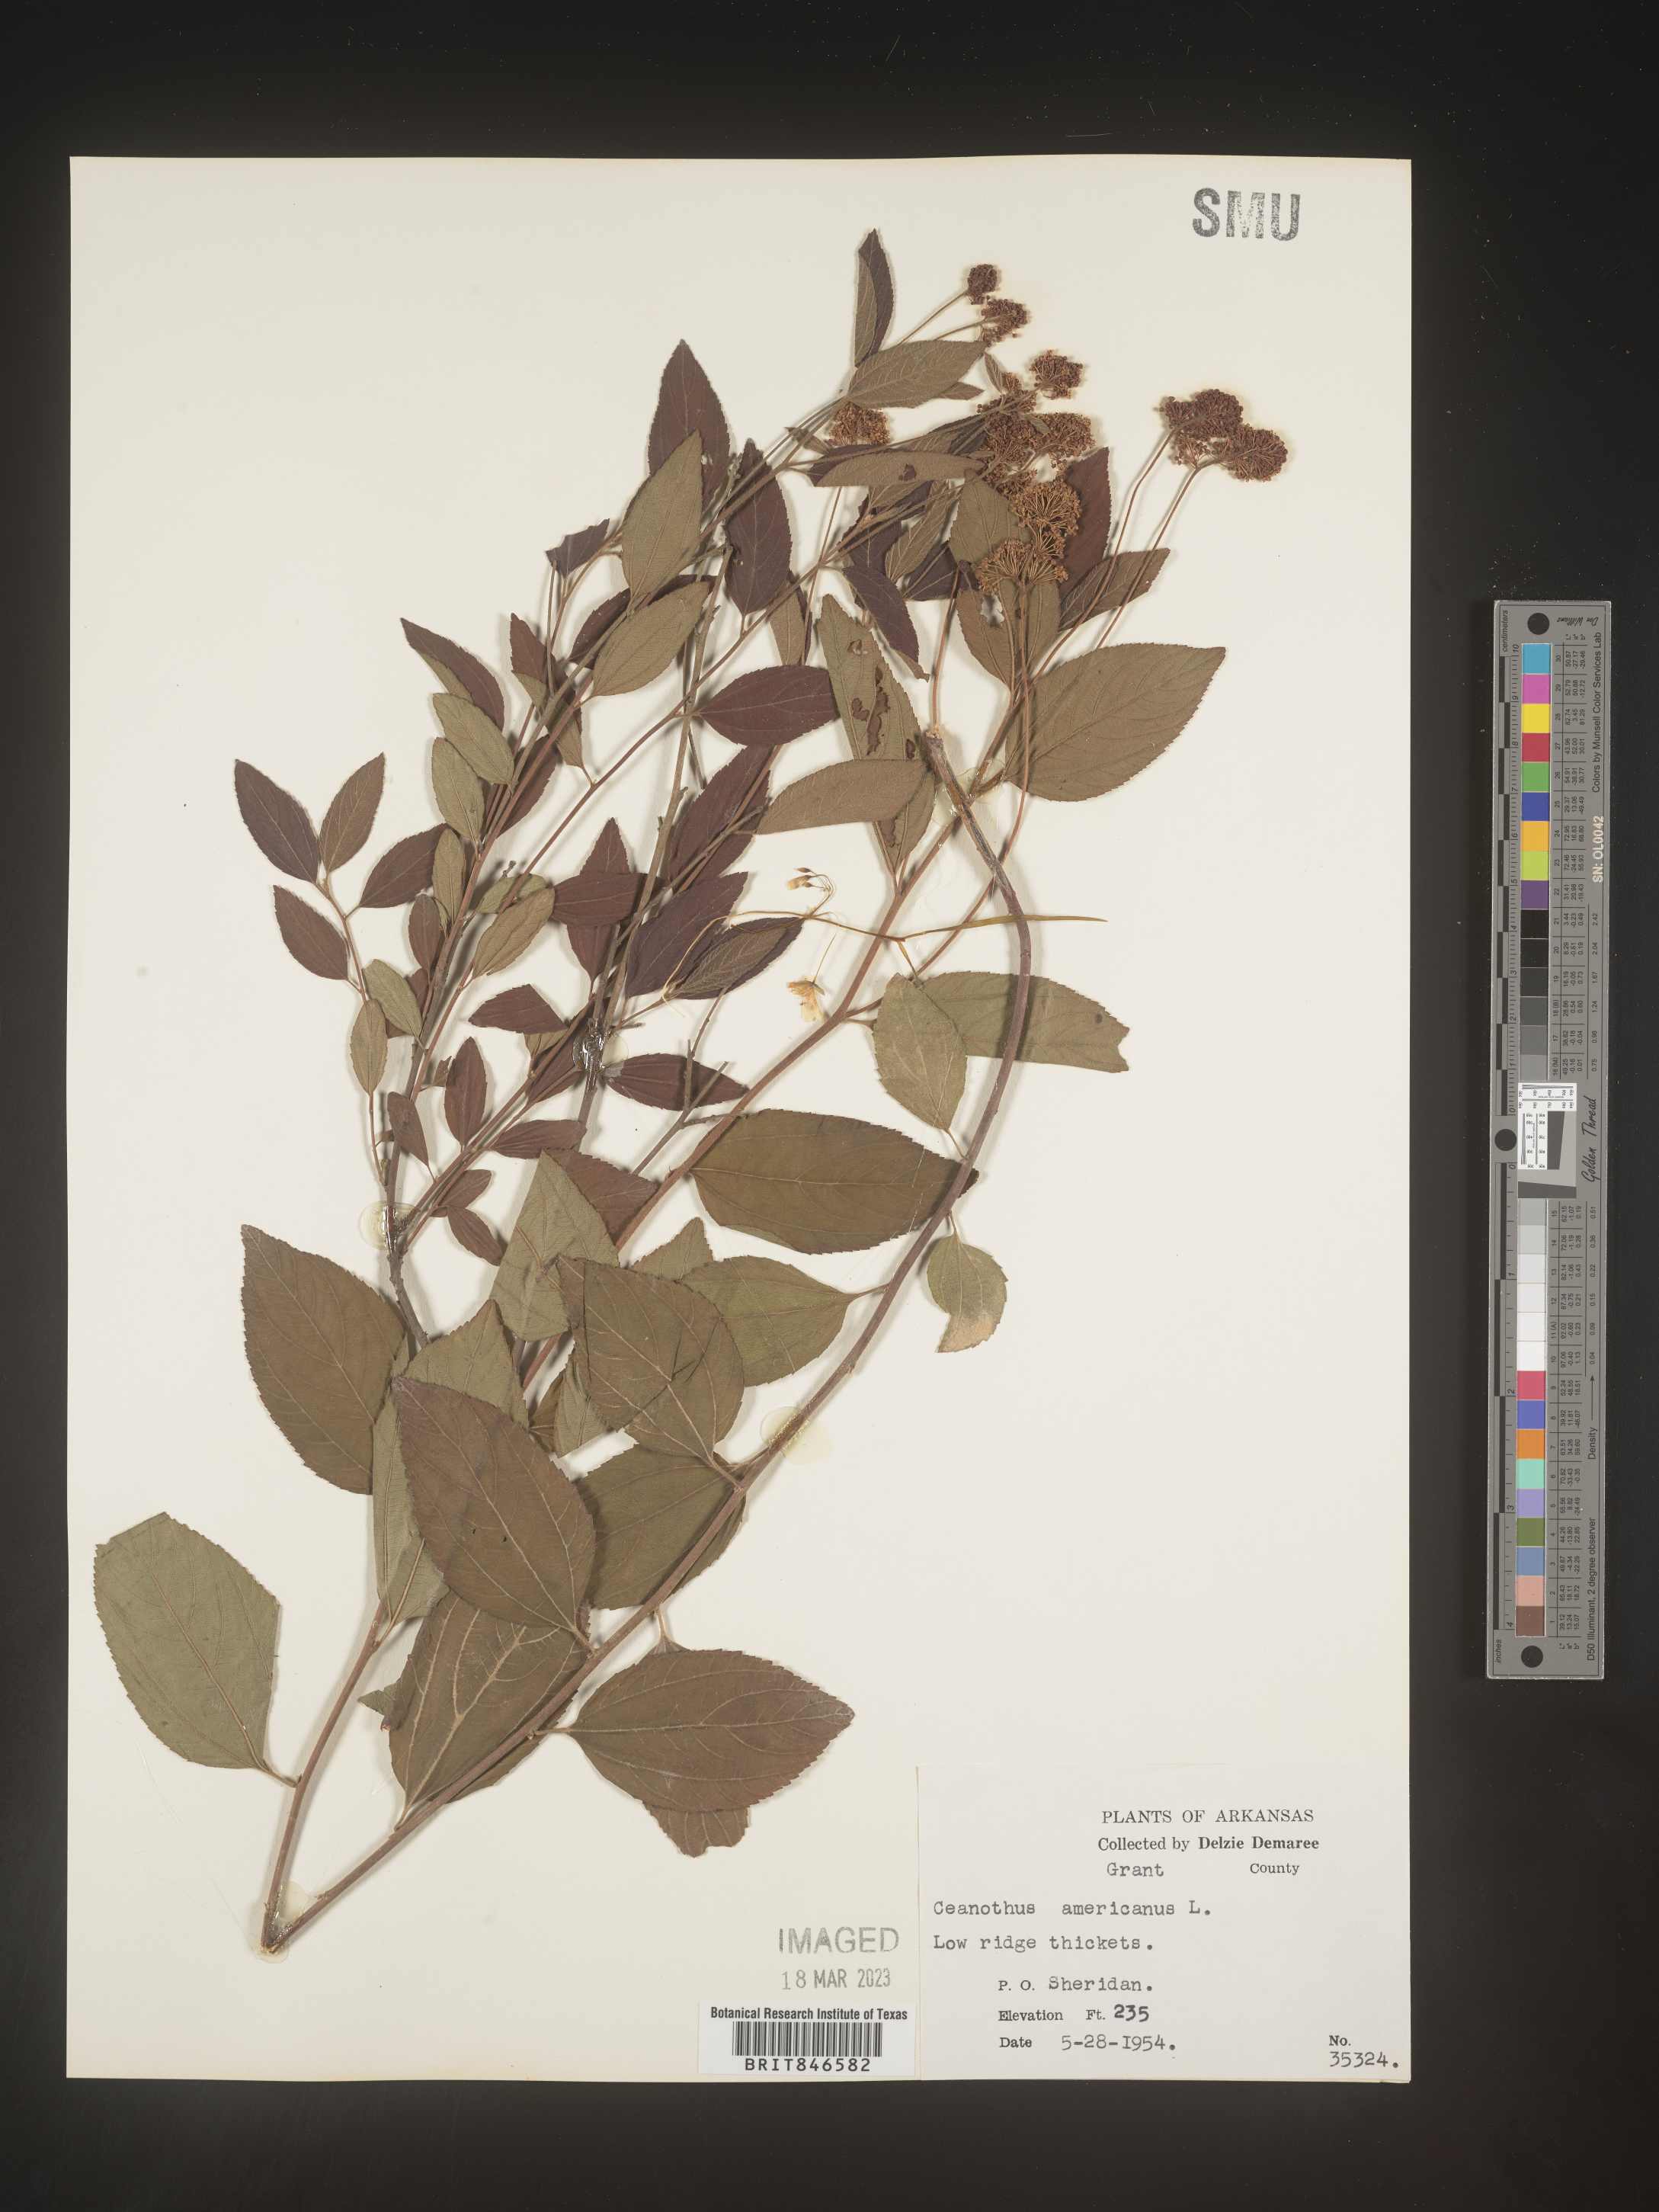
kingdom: Plantae
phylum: Tracheophyta
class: Magnoliopsida
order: Rosales
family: Rhamnaceae
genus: Ceanothus
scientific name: Ceanothus americanus
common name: Redroot
